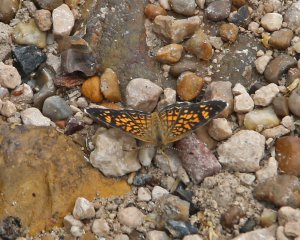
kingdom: Animalia
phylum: Arthropoda
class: Insecta
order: Lepidoptera
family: Nymphalidae
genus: Phyciodes
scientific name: Phyciodes vesta
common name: Vesta Crescent
